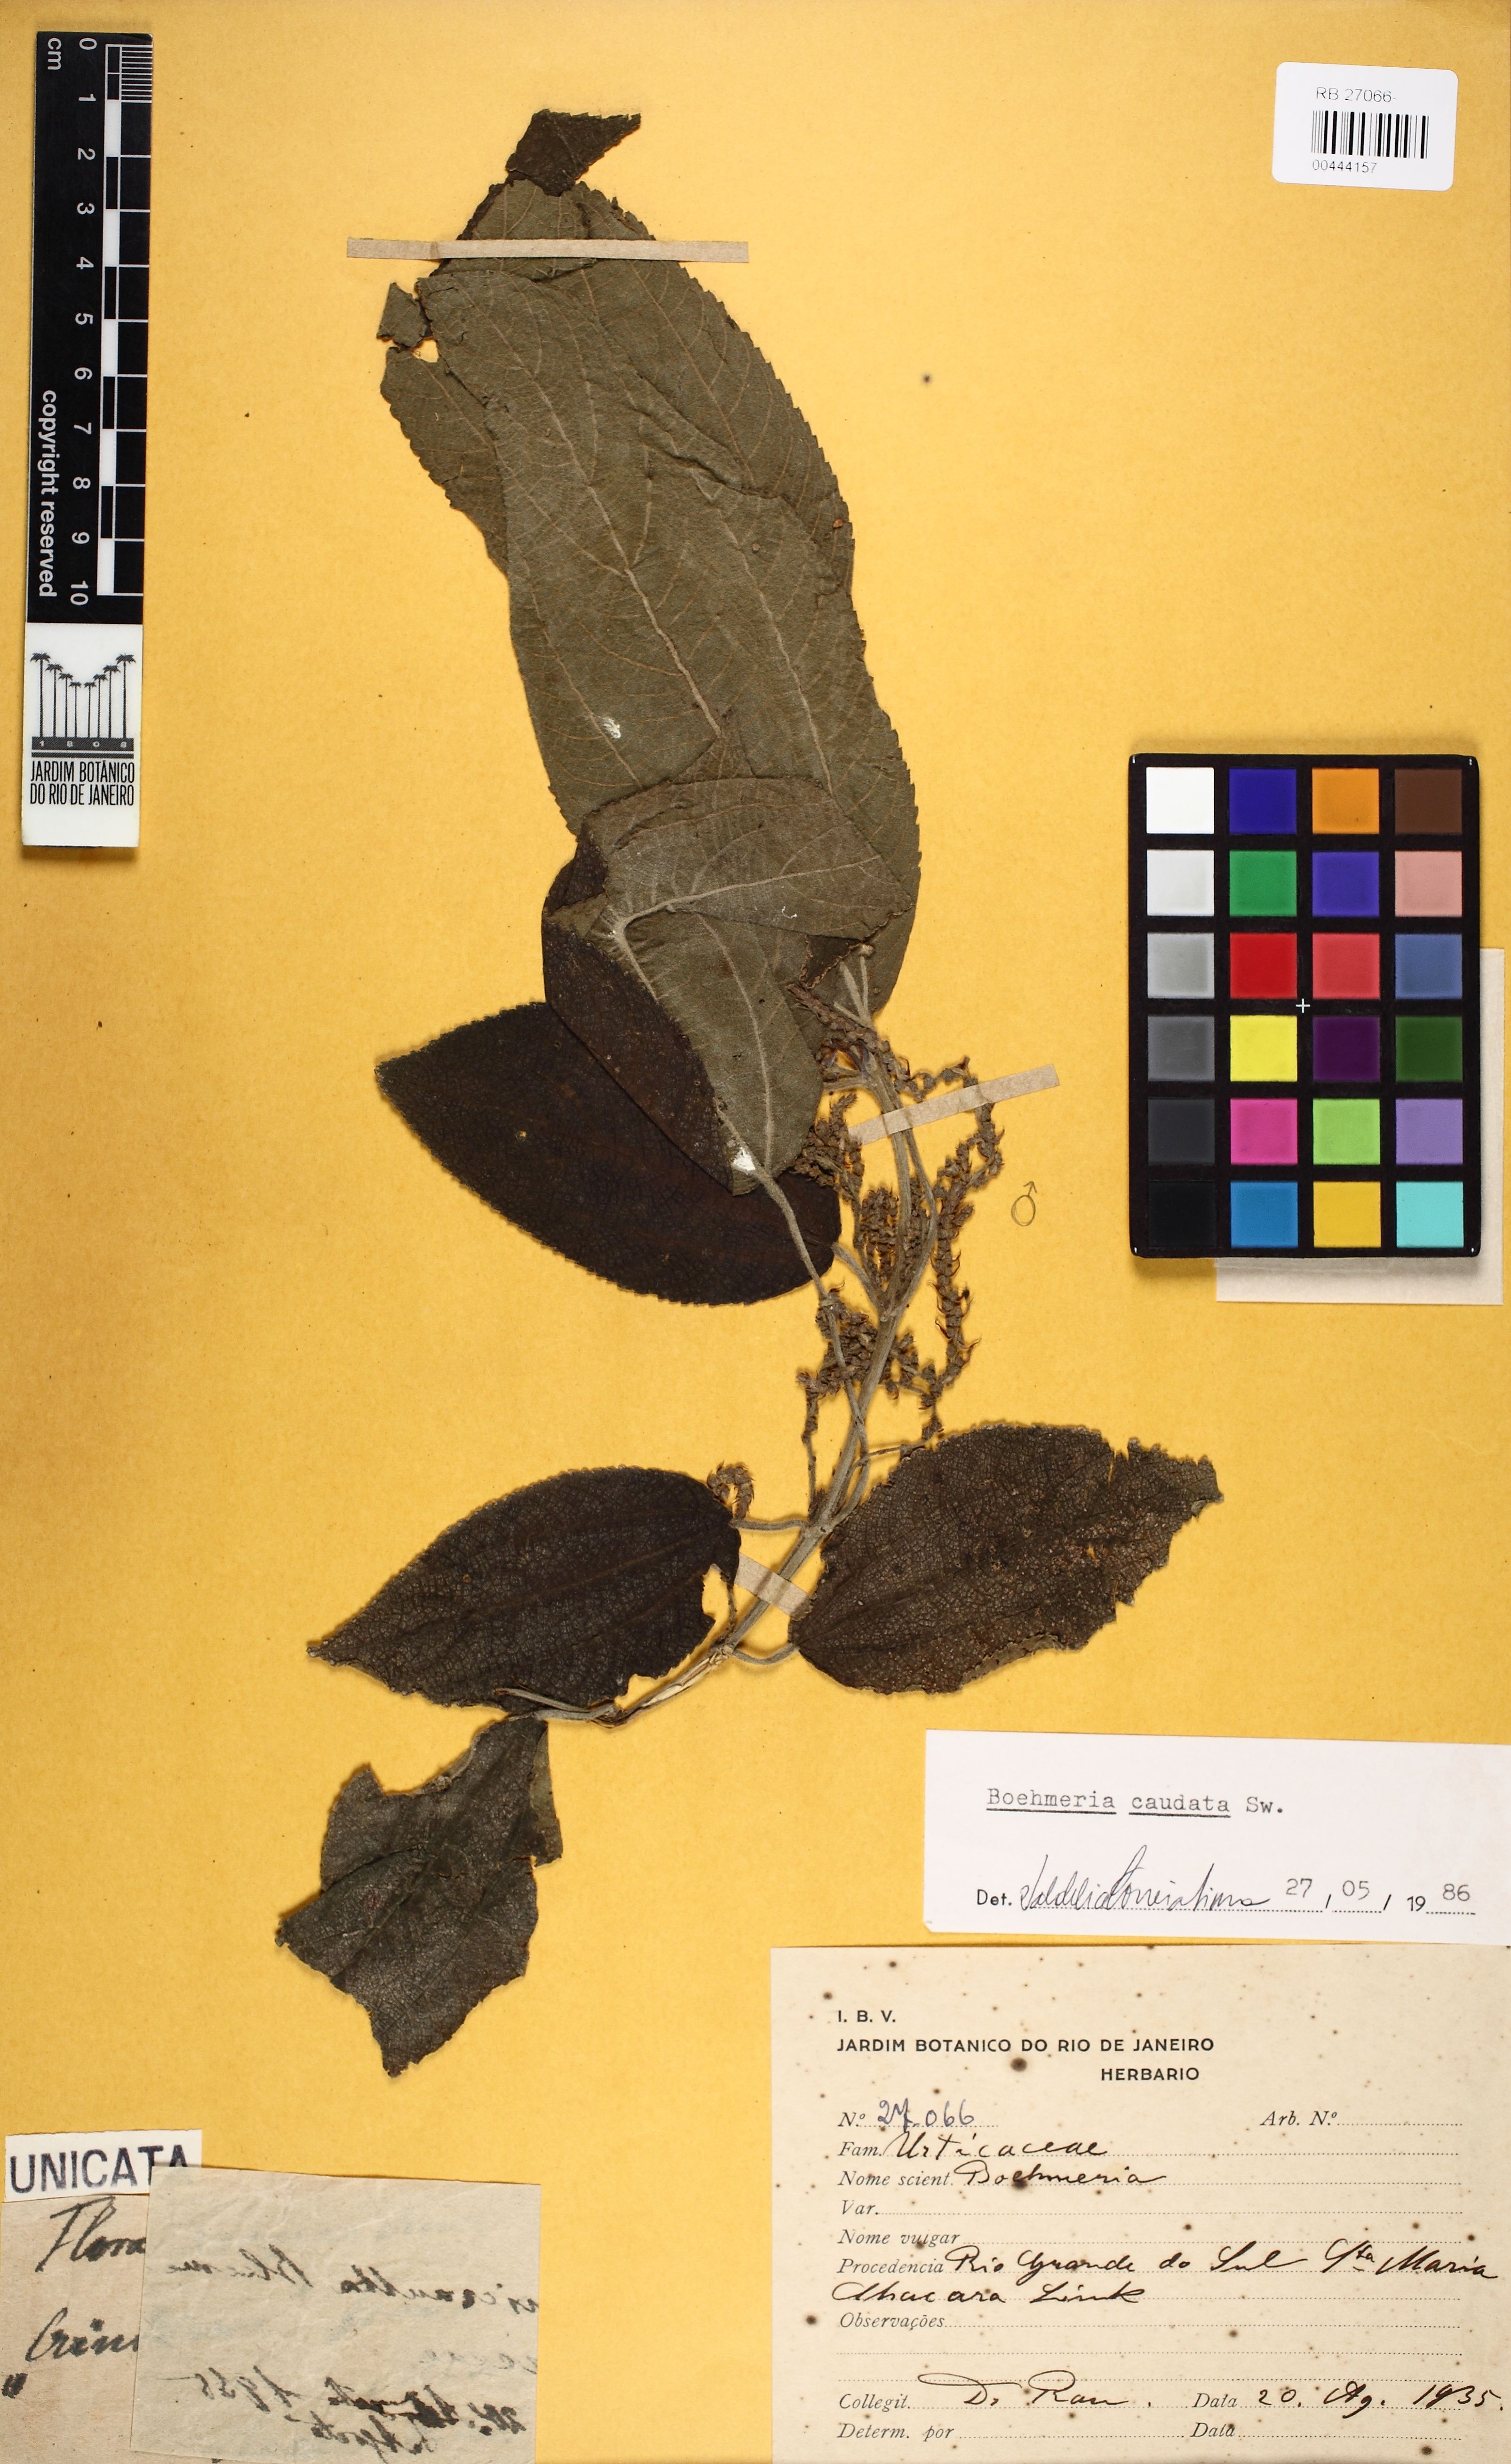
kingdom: Plantae
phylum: Tracheophyta
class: Magnoliopsida
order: Rosales
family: Urticaceae
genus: Boehmeria
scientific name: Boehmeria caudata
